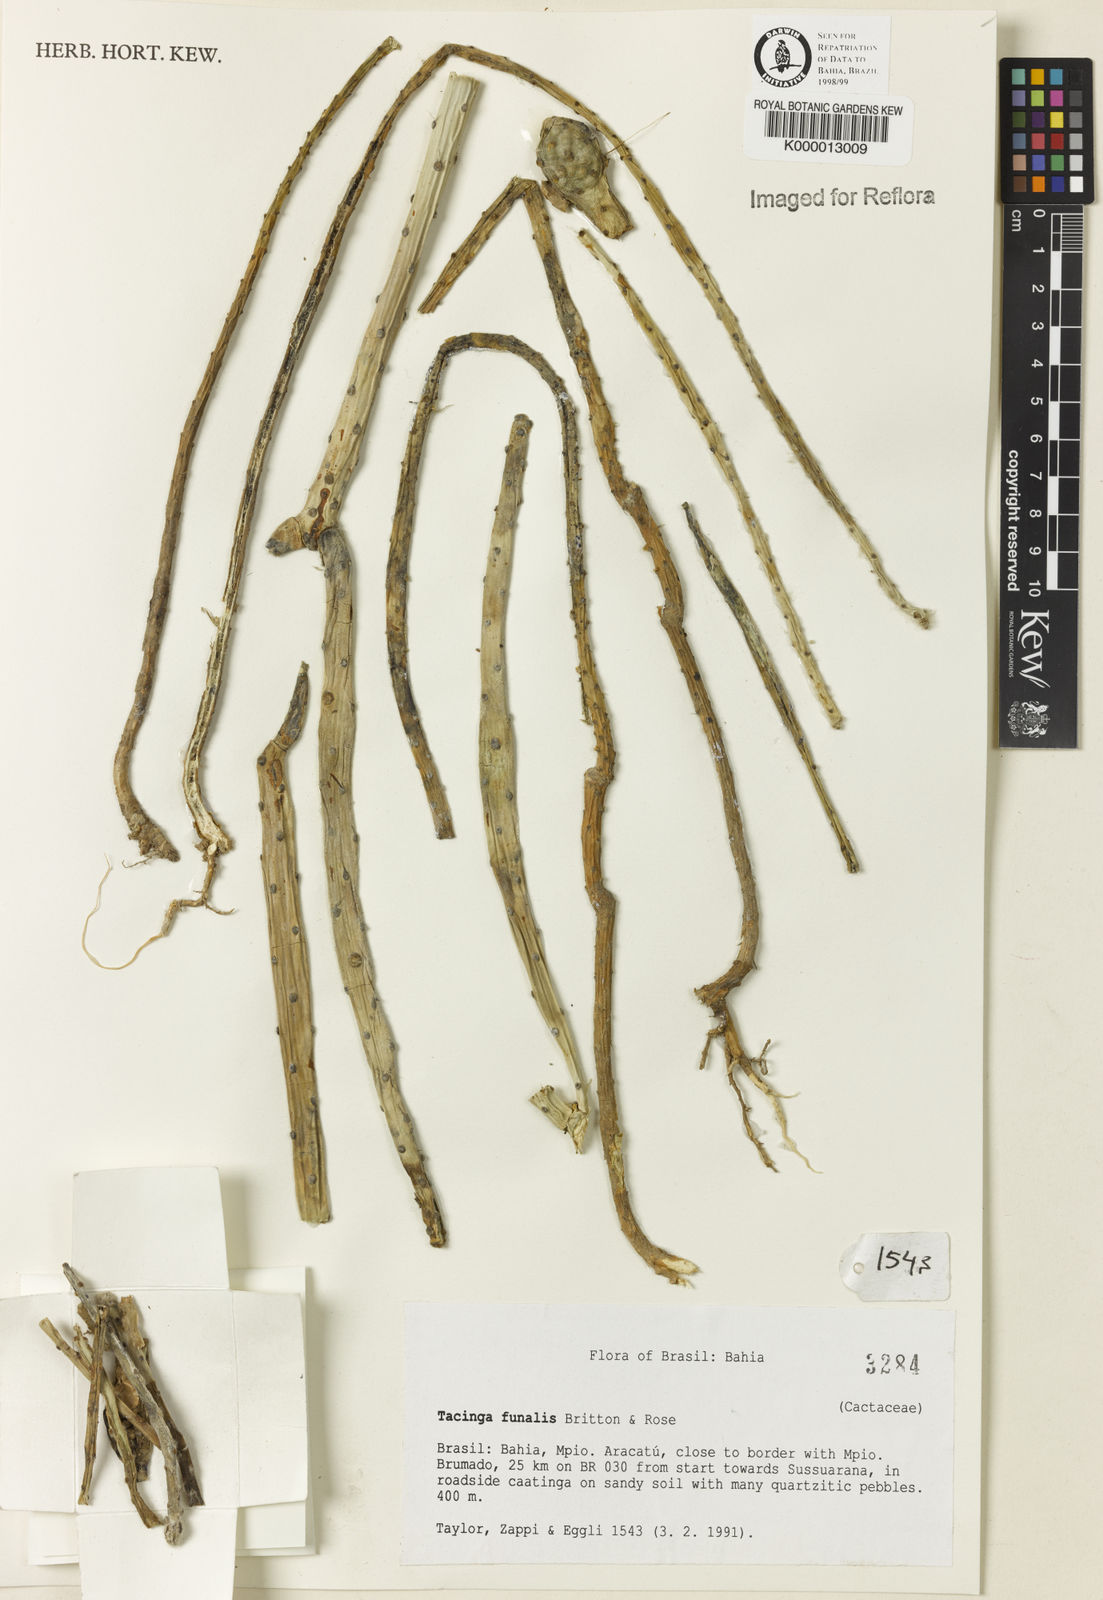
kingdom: Plantae
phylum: Tracheophyta
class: Magnoliopsida
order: Caryophyllales
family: Cactaceae
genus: Tacinga
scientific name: Tacinga funalis
